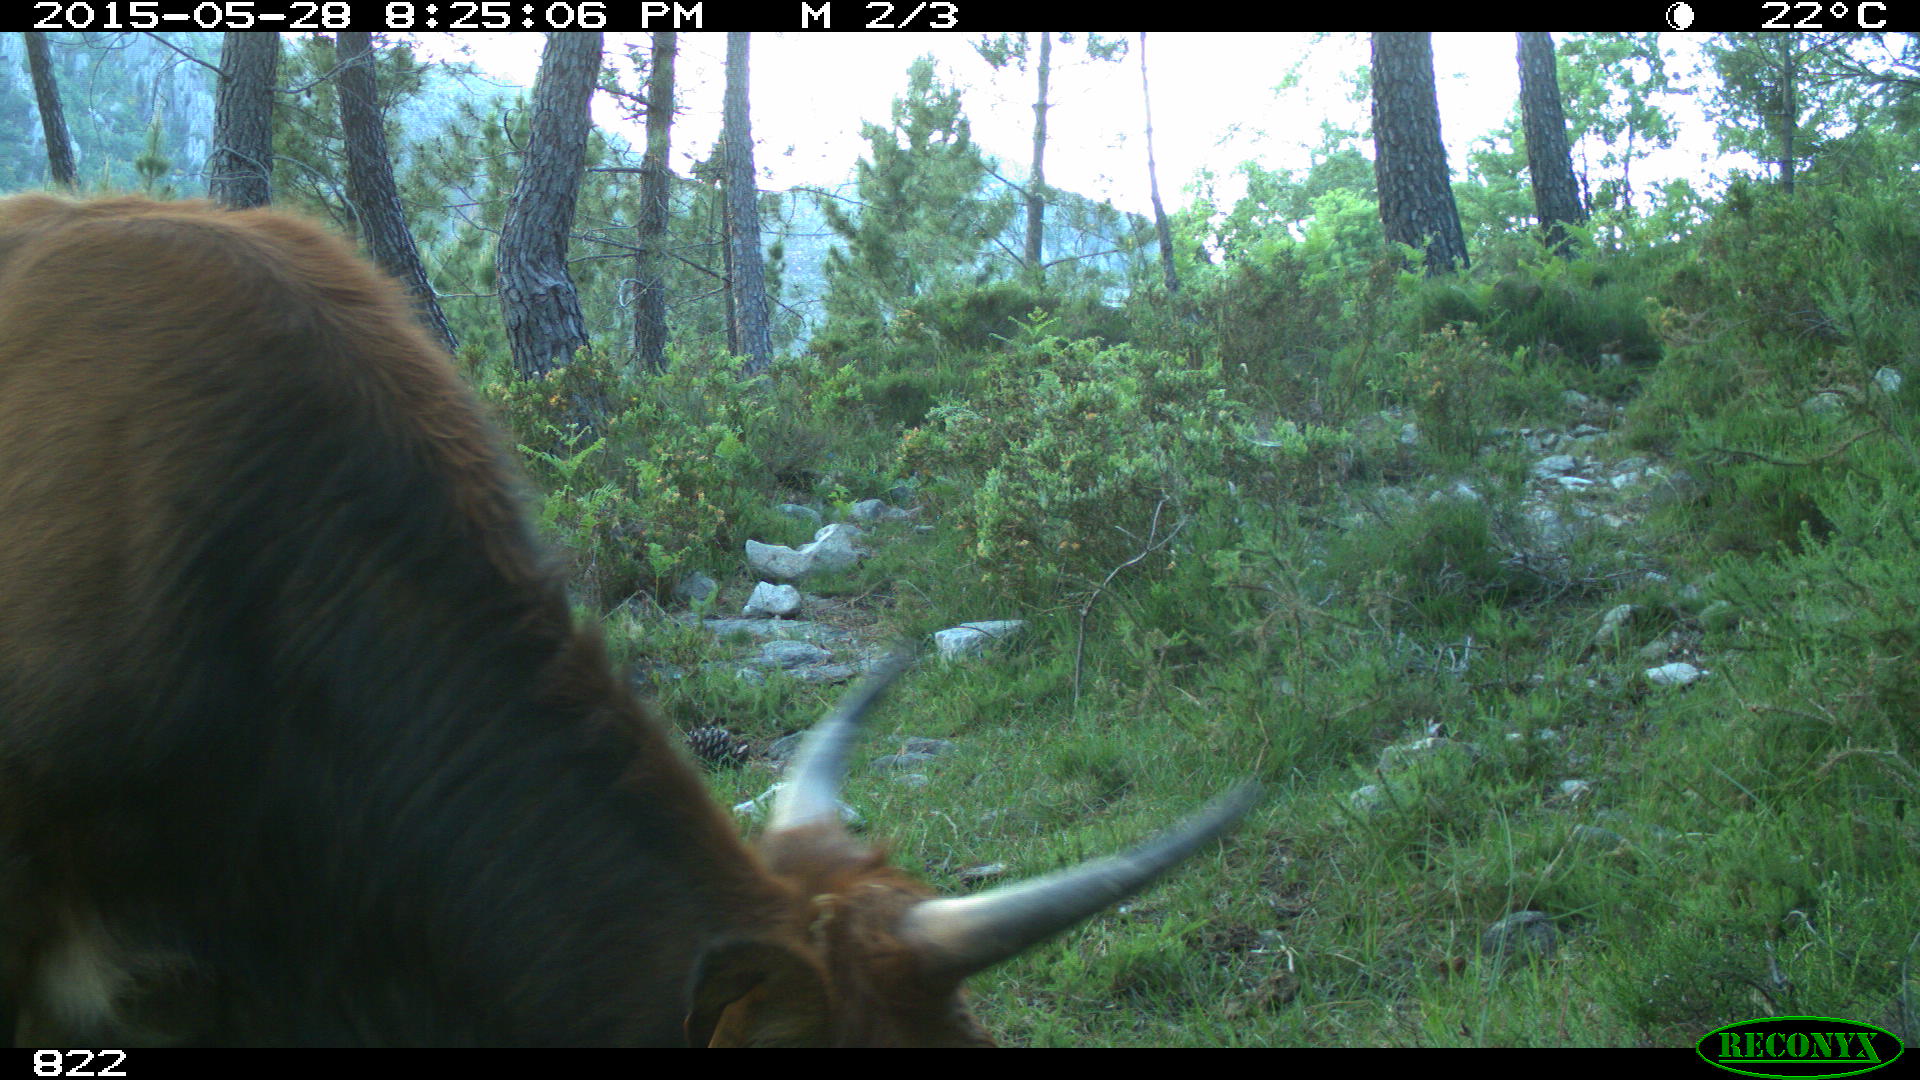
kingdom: Animalia
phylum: Chordata
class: Mammalia
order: Artiodactyla
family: Bovidae
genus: Bos
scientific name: Bos taurus
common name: Domesticated cattle
